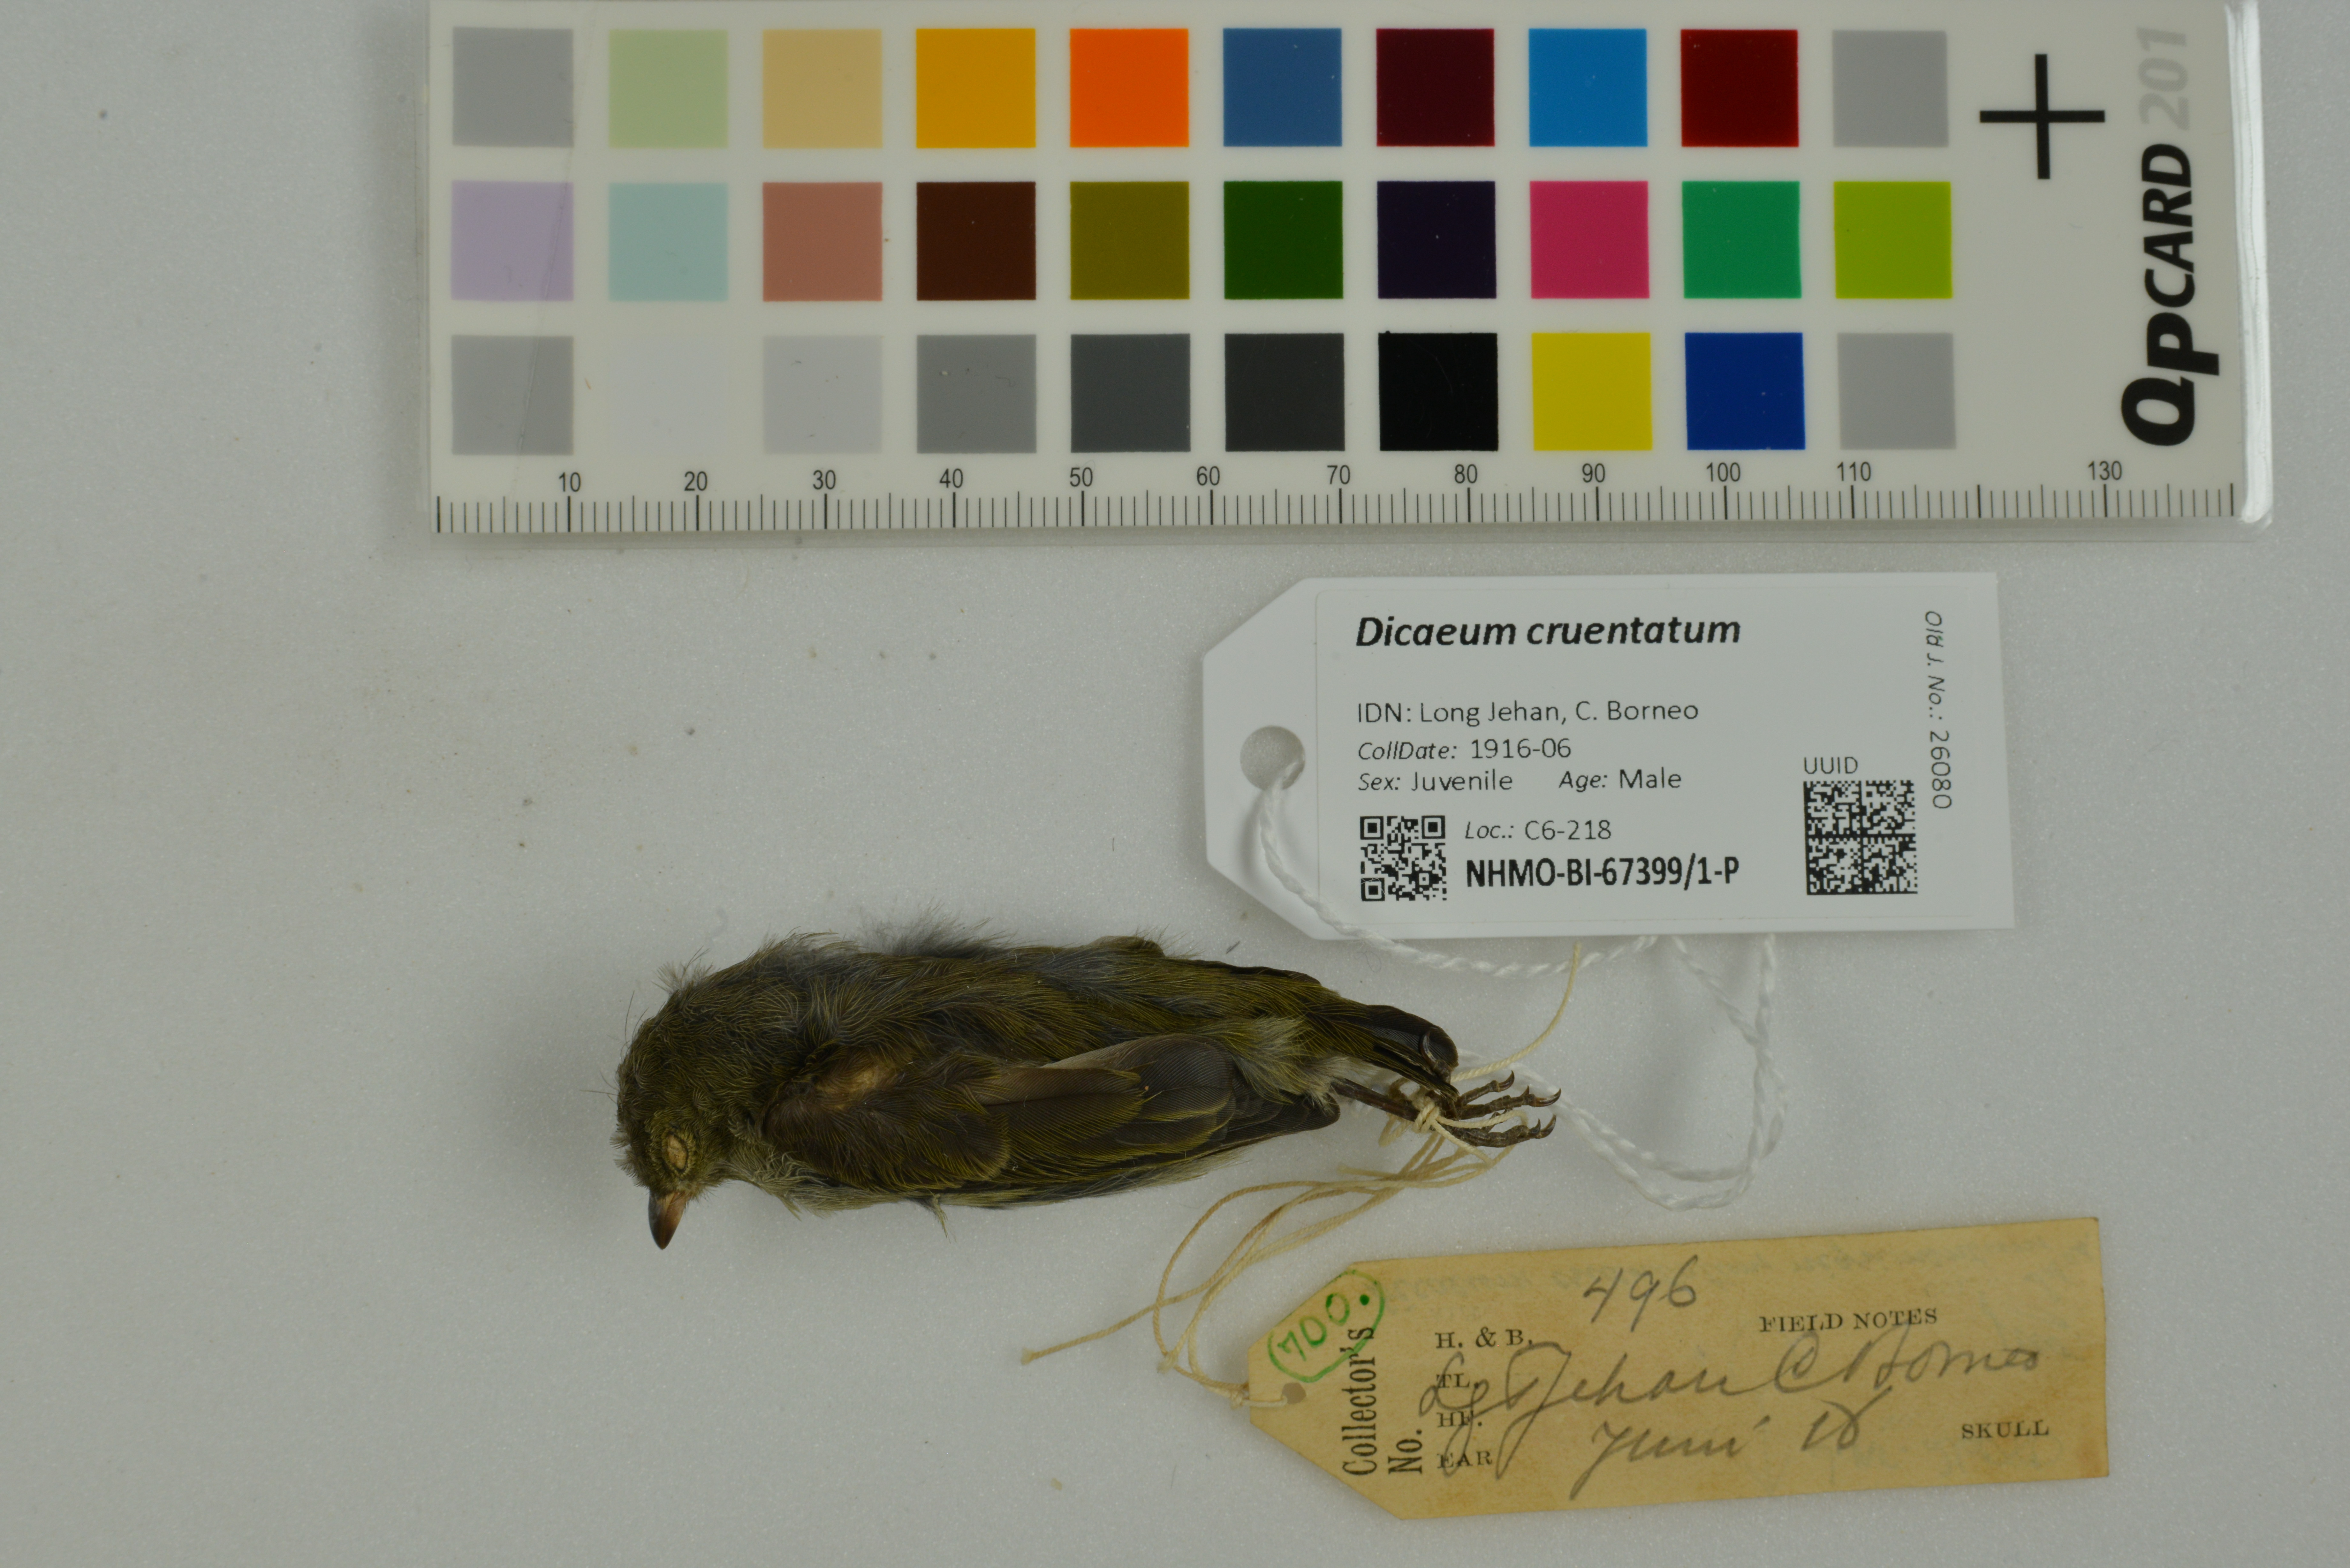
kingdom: Animalia
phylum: Chordata
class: Aves
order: Passeriformes
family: Dicaeidae
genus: Dicaeum
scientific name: Dicaeum cruentatum
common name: Scarlet-backed flowerpecker
